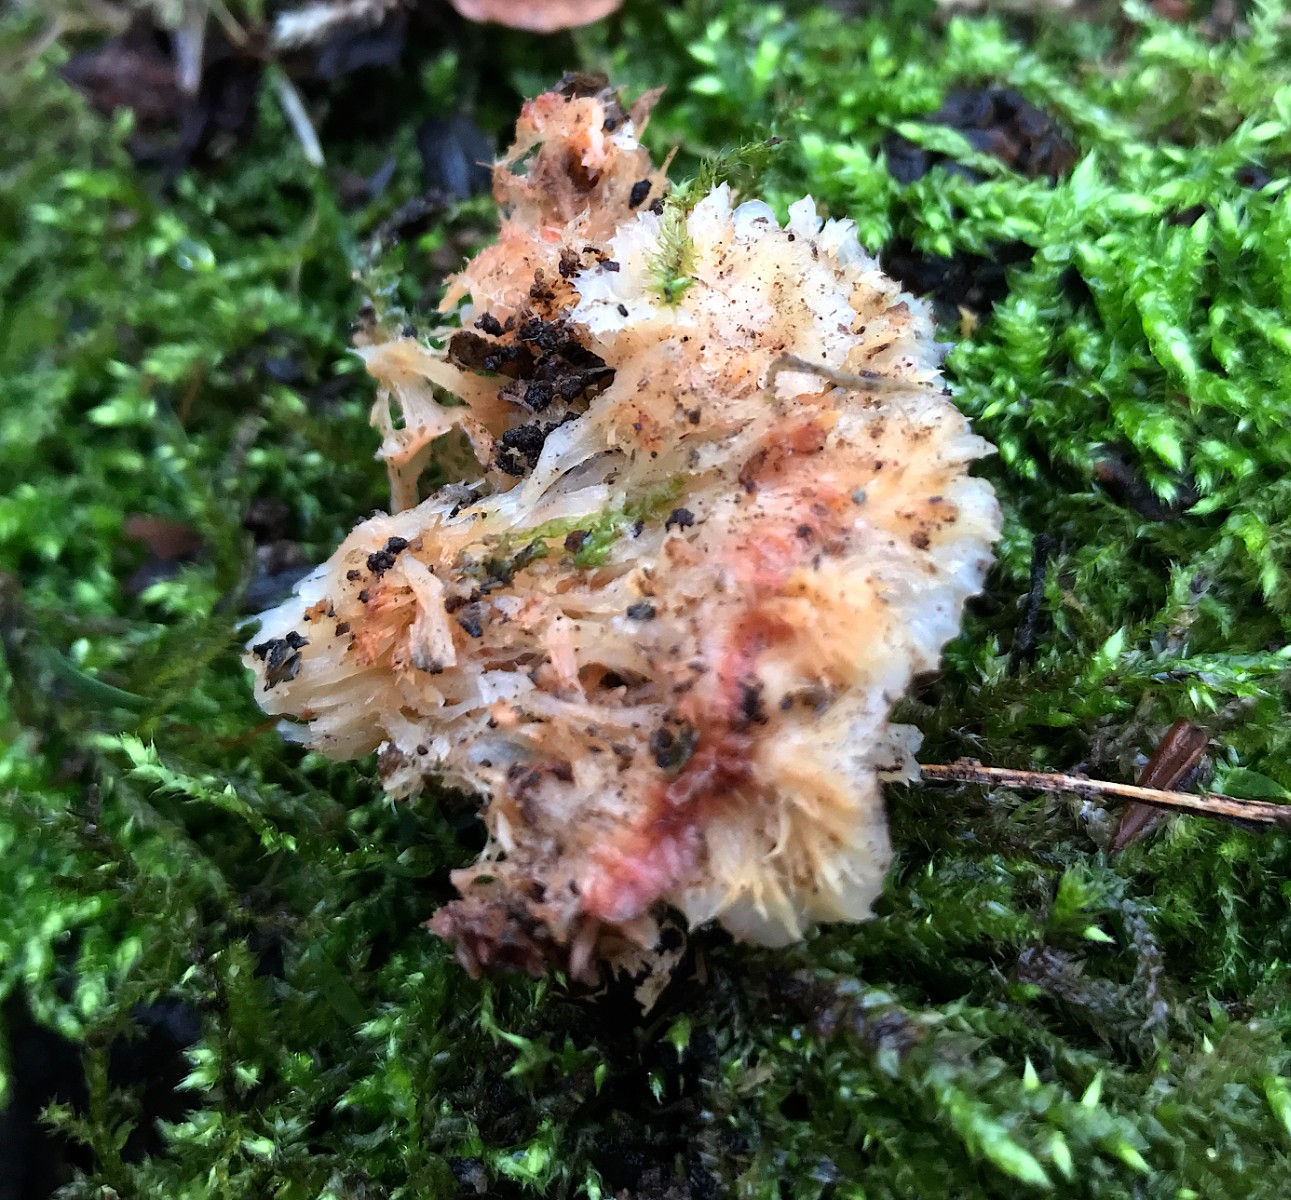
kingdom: Fungi
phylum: Basidiomycota
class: Agaricomycetes
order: Polyporales
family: Meruliaceae
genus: Phlebia
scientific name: Phlebia tremellosa
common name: bævrende åresvamp
